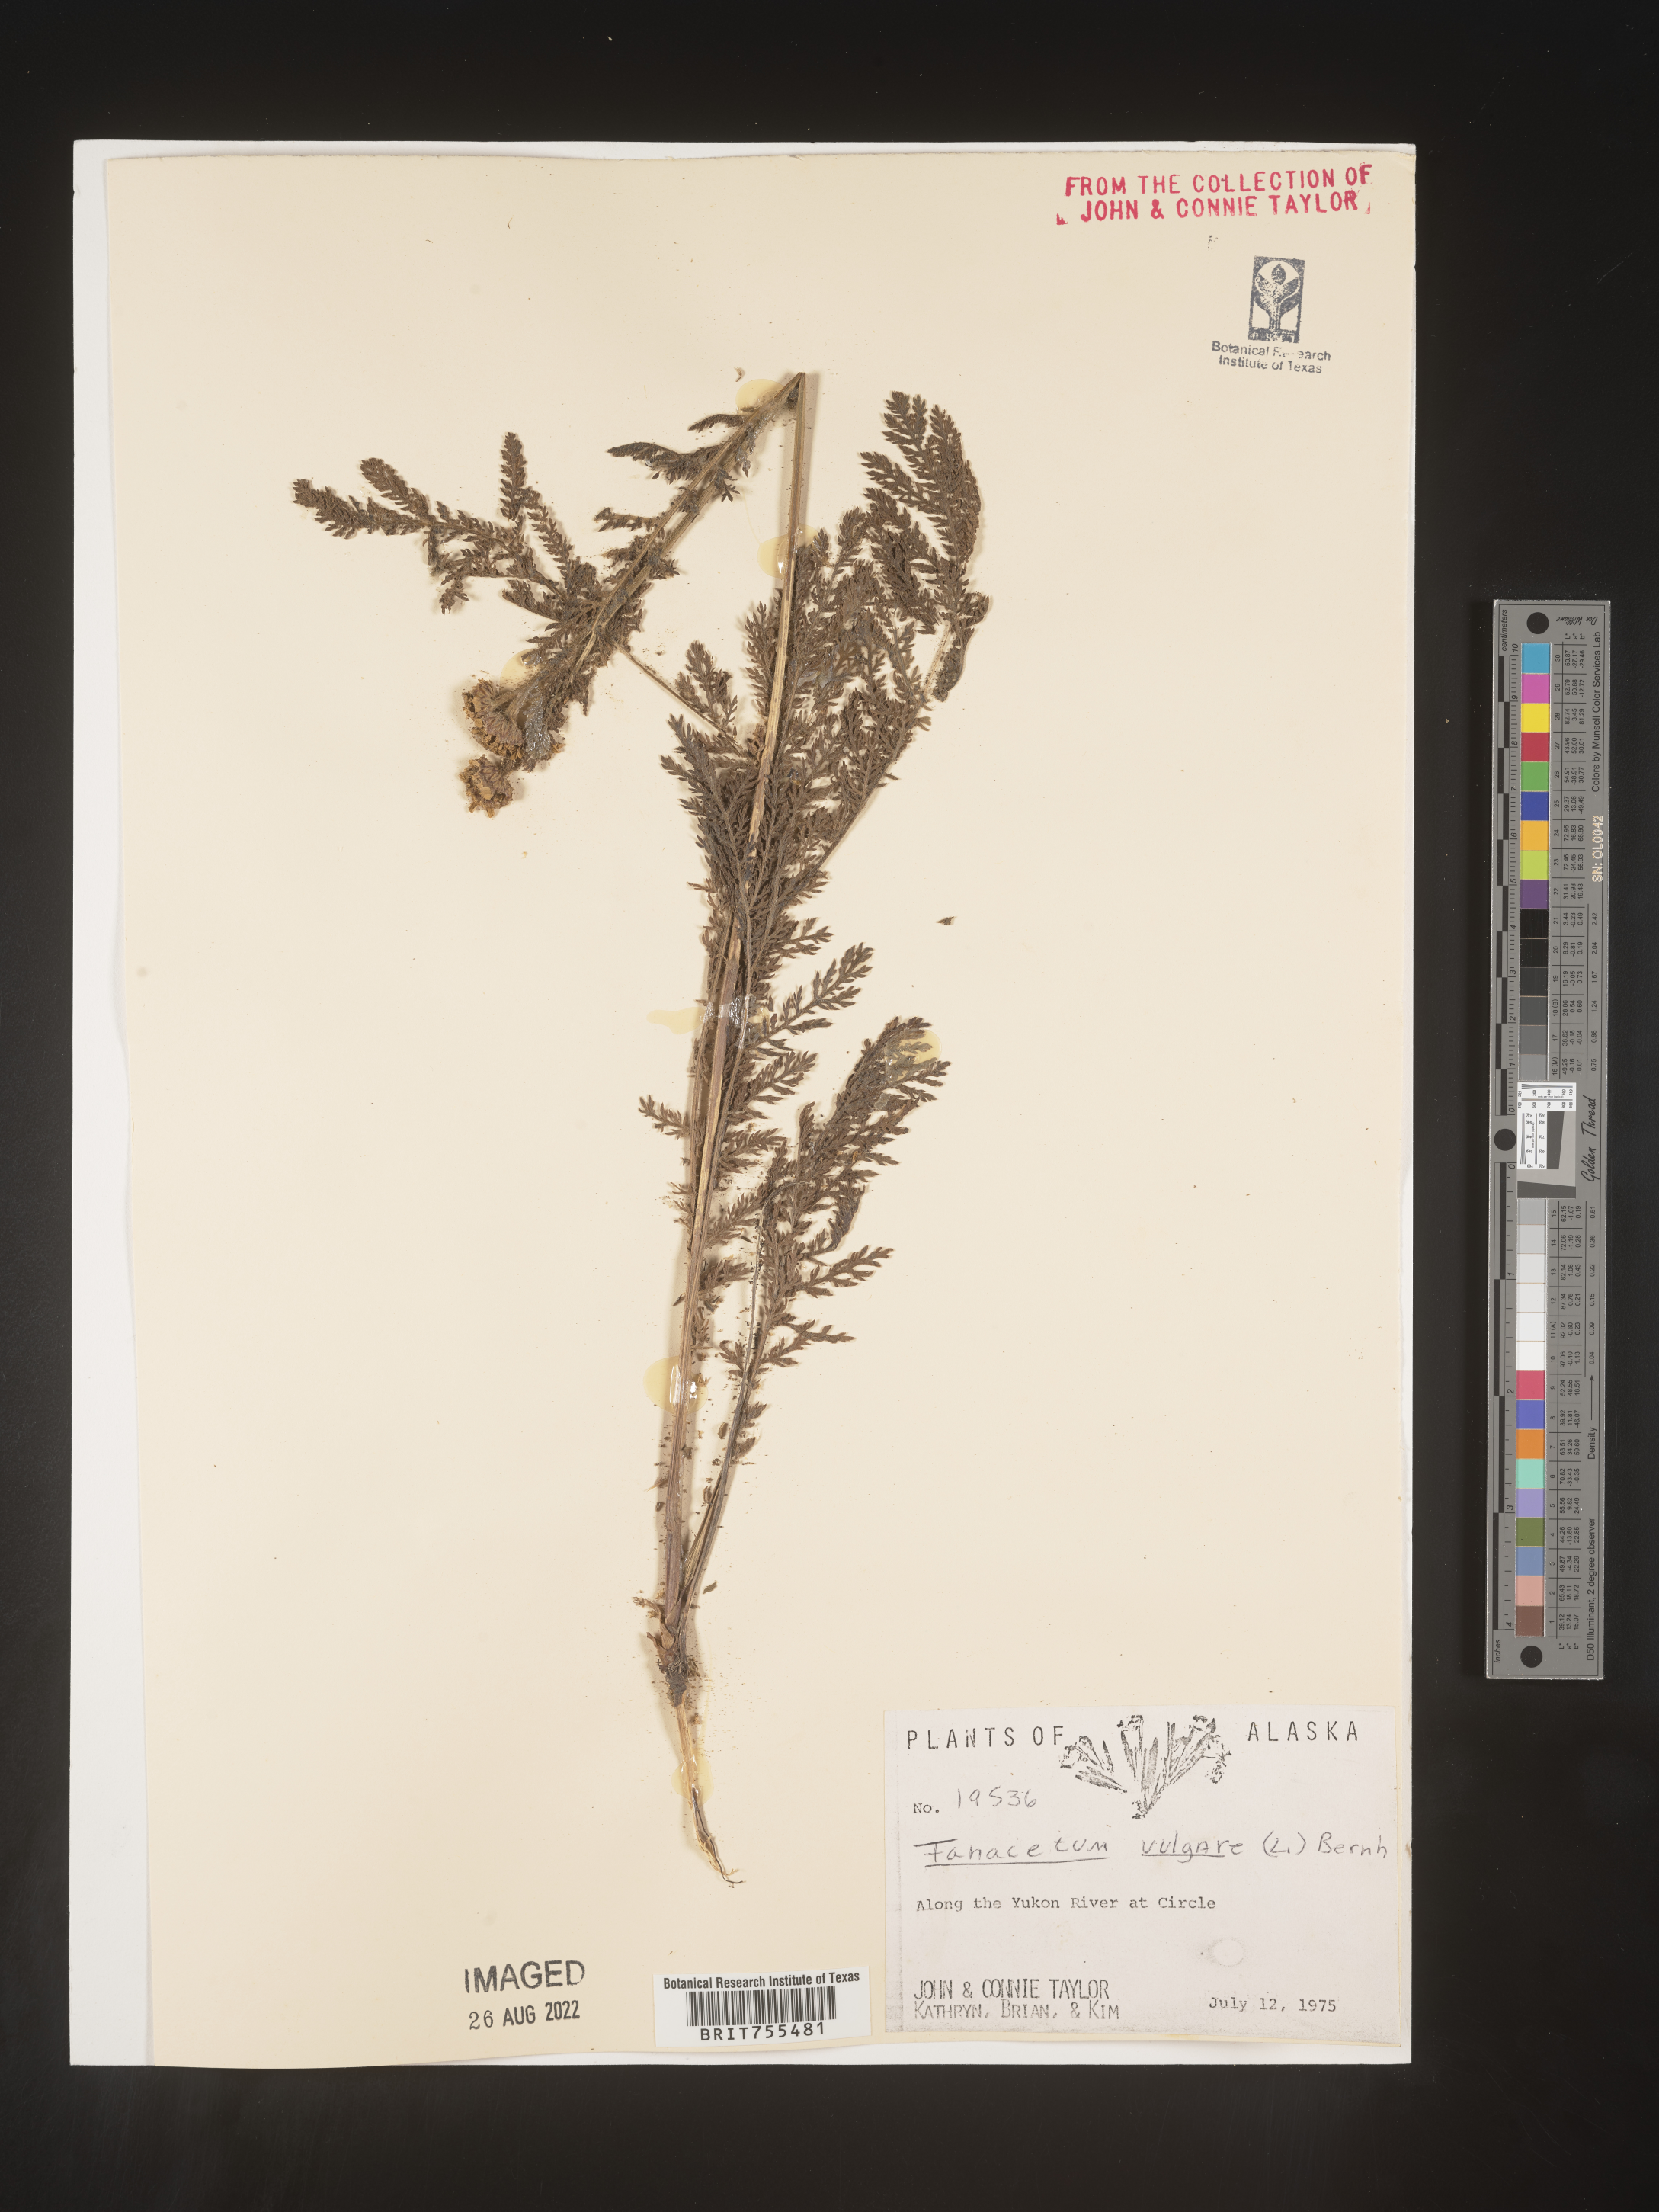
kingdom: Plantae
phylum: Tracheophyta
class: Magnoliopsida
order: Asterales
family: Asteraceae
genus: Tanacetum
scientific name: Tanacetum vulgare
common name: Common tansy
